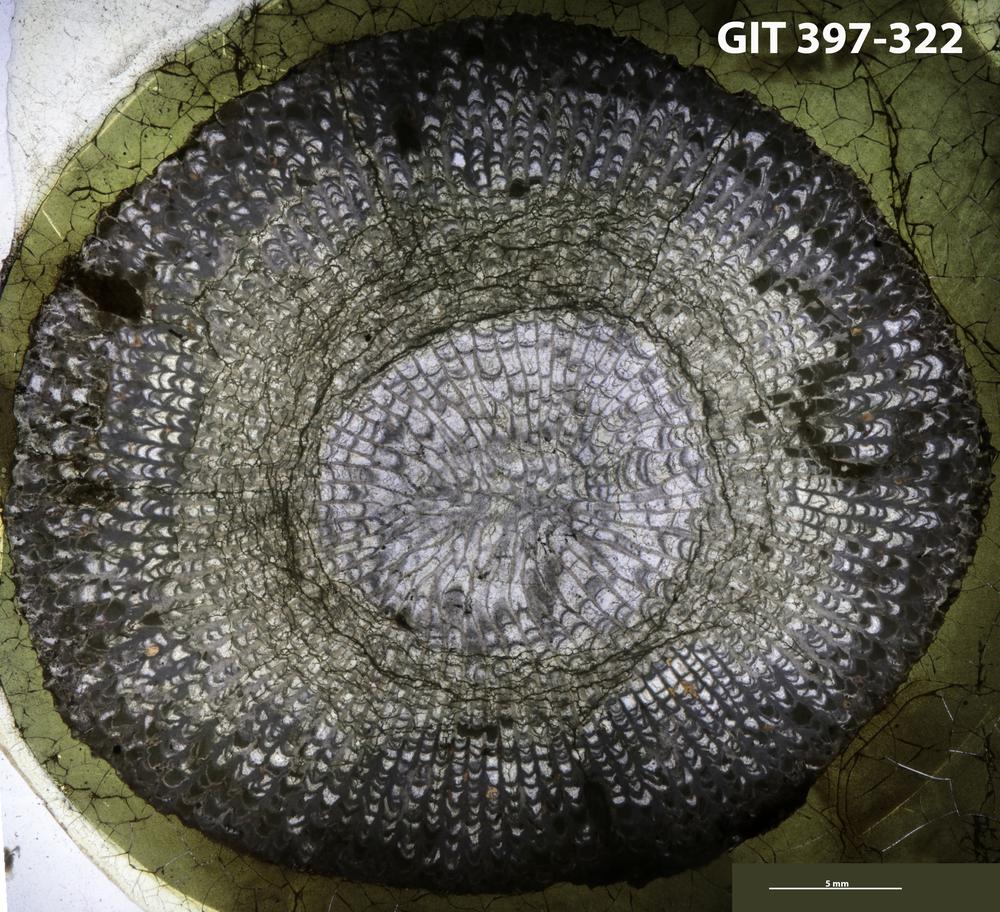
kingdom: Animalia
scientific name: Animalia
